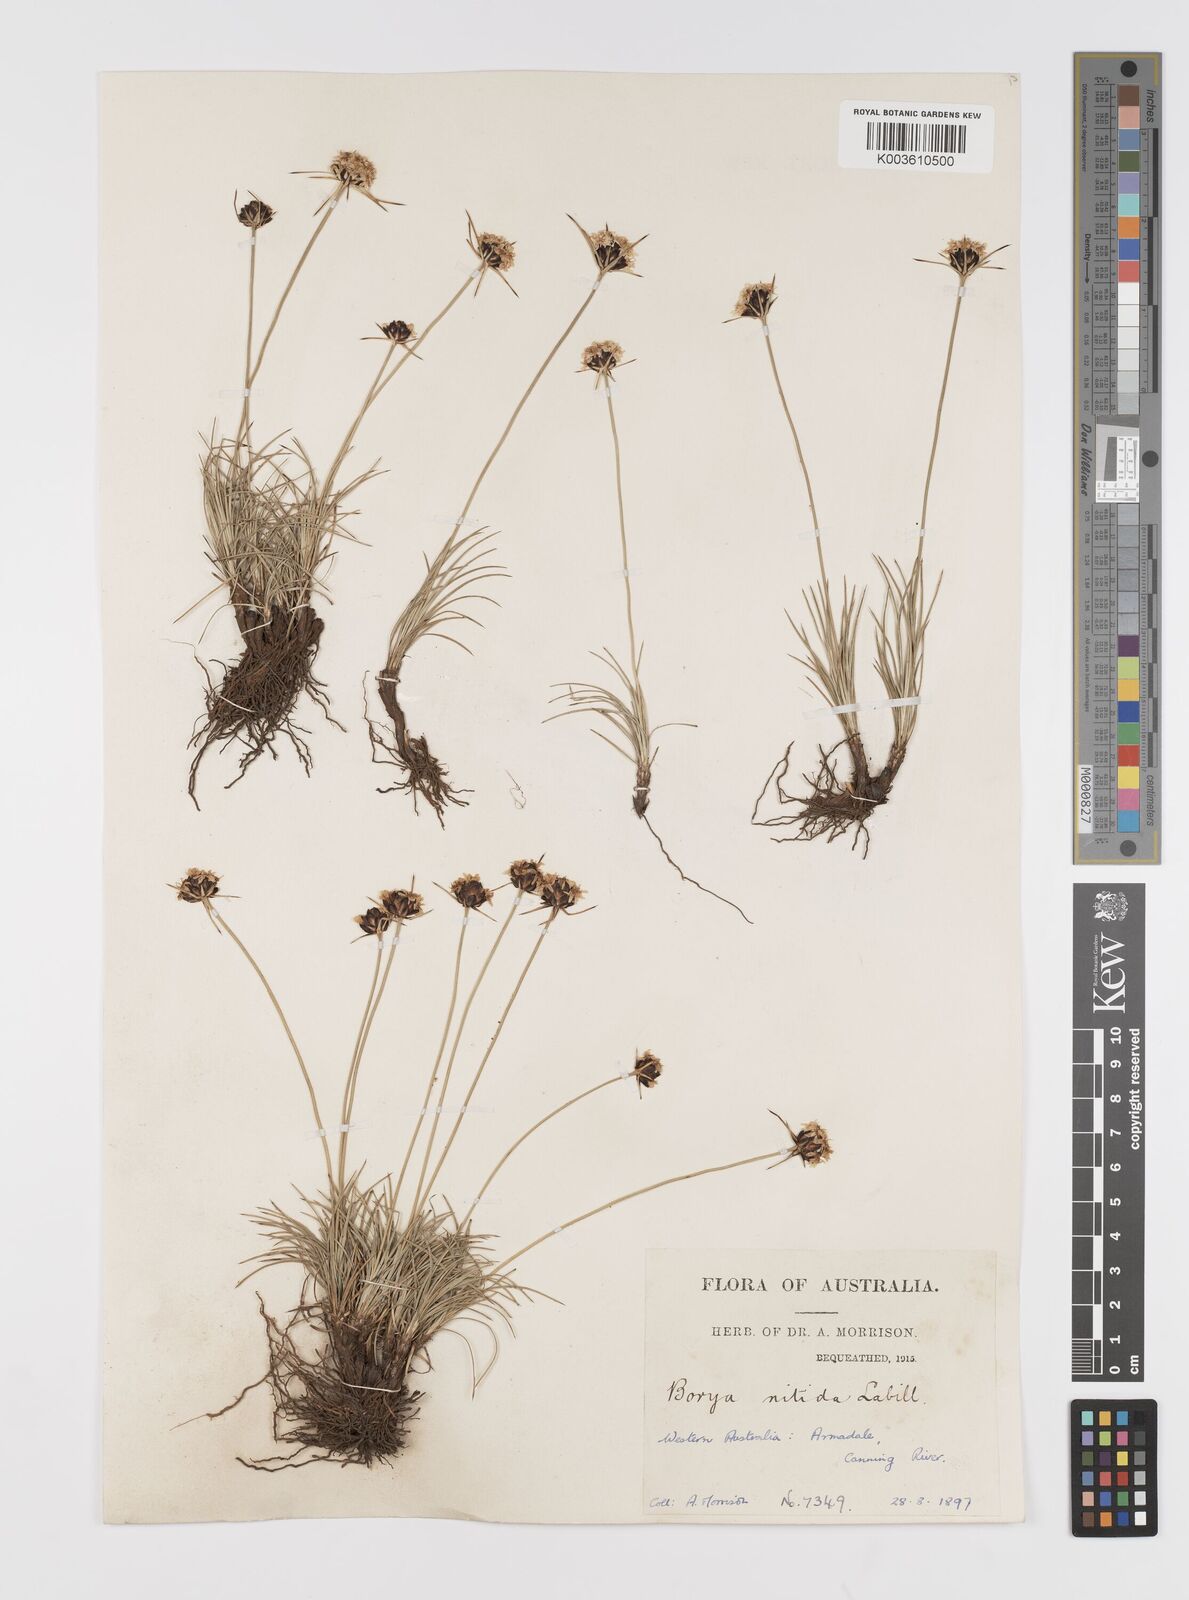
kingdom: Plantae
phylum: Tracheophyta
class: Liliopsida
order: Asparagales
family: Boryaceae
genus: Borya
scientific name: Borya nitida
